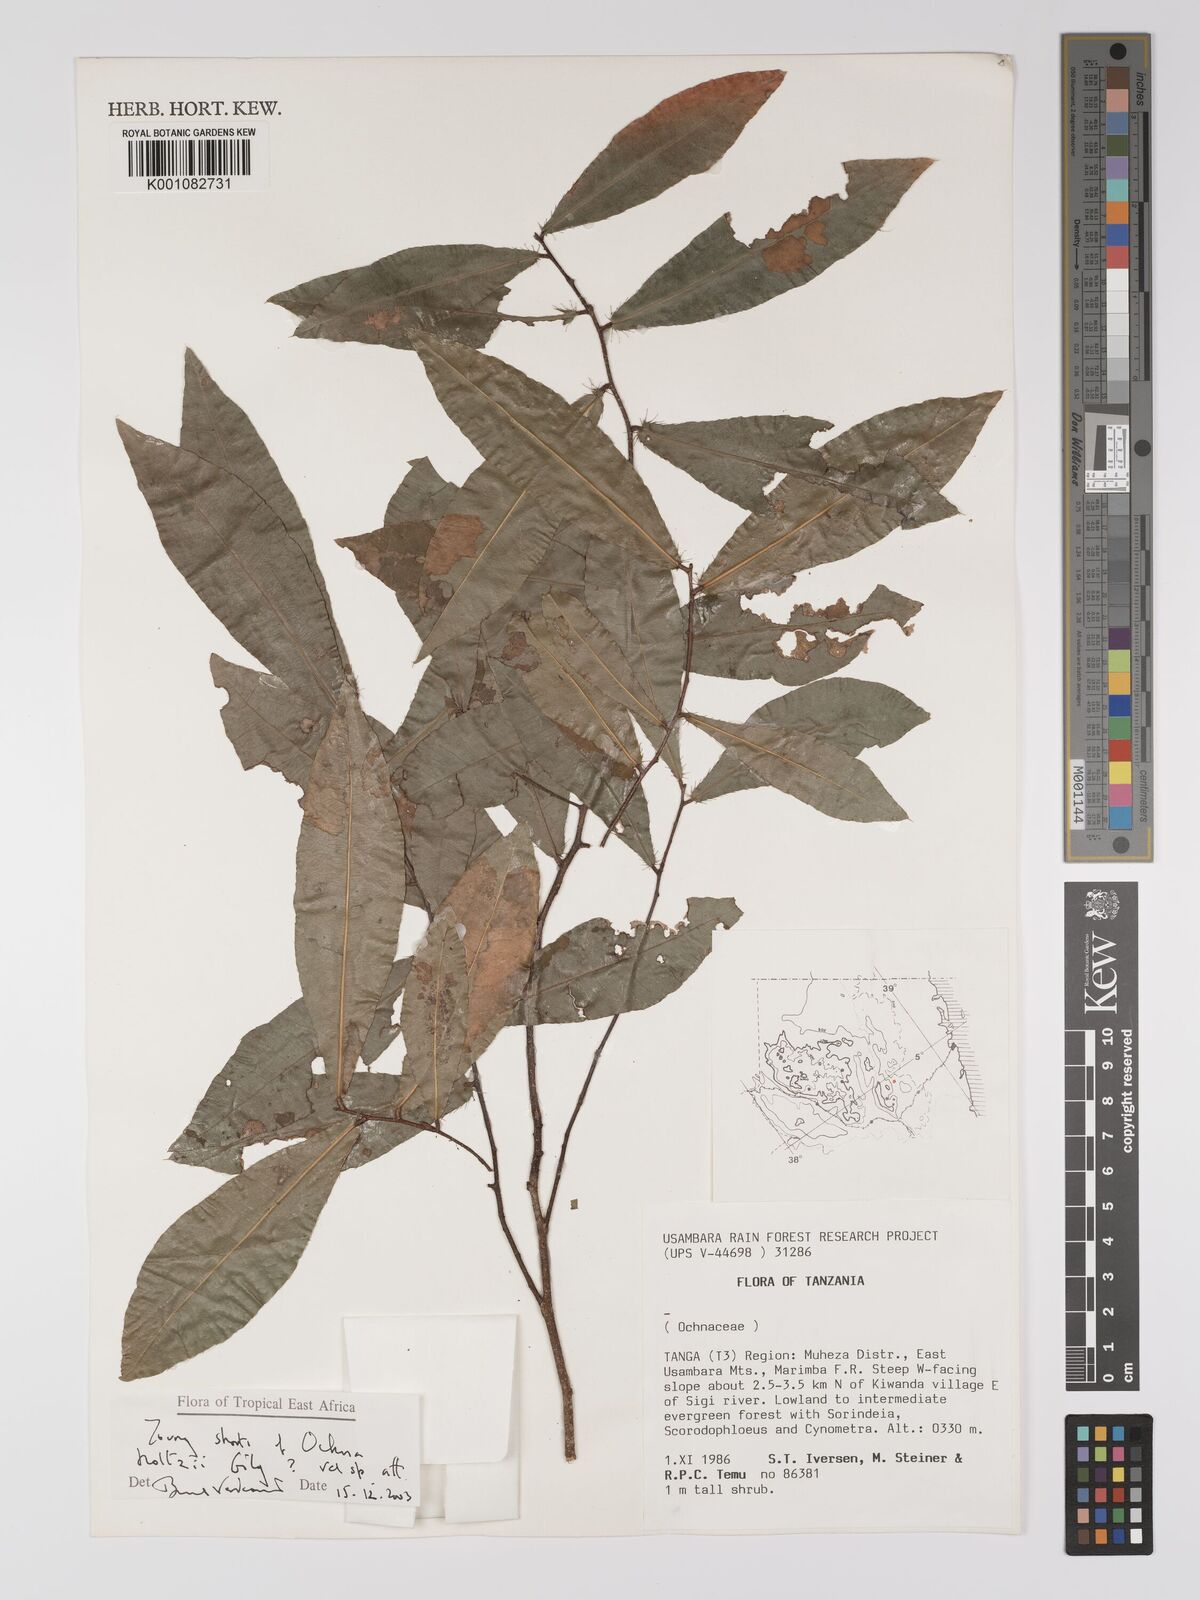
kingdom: Plantae
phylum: Tracheophyta
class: Magnoliopsida
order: Malpighiales
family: Ochnaceae
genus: Ochna
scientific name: Ochna holtzii
